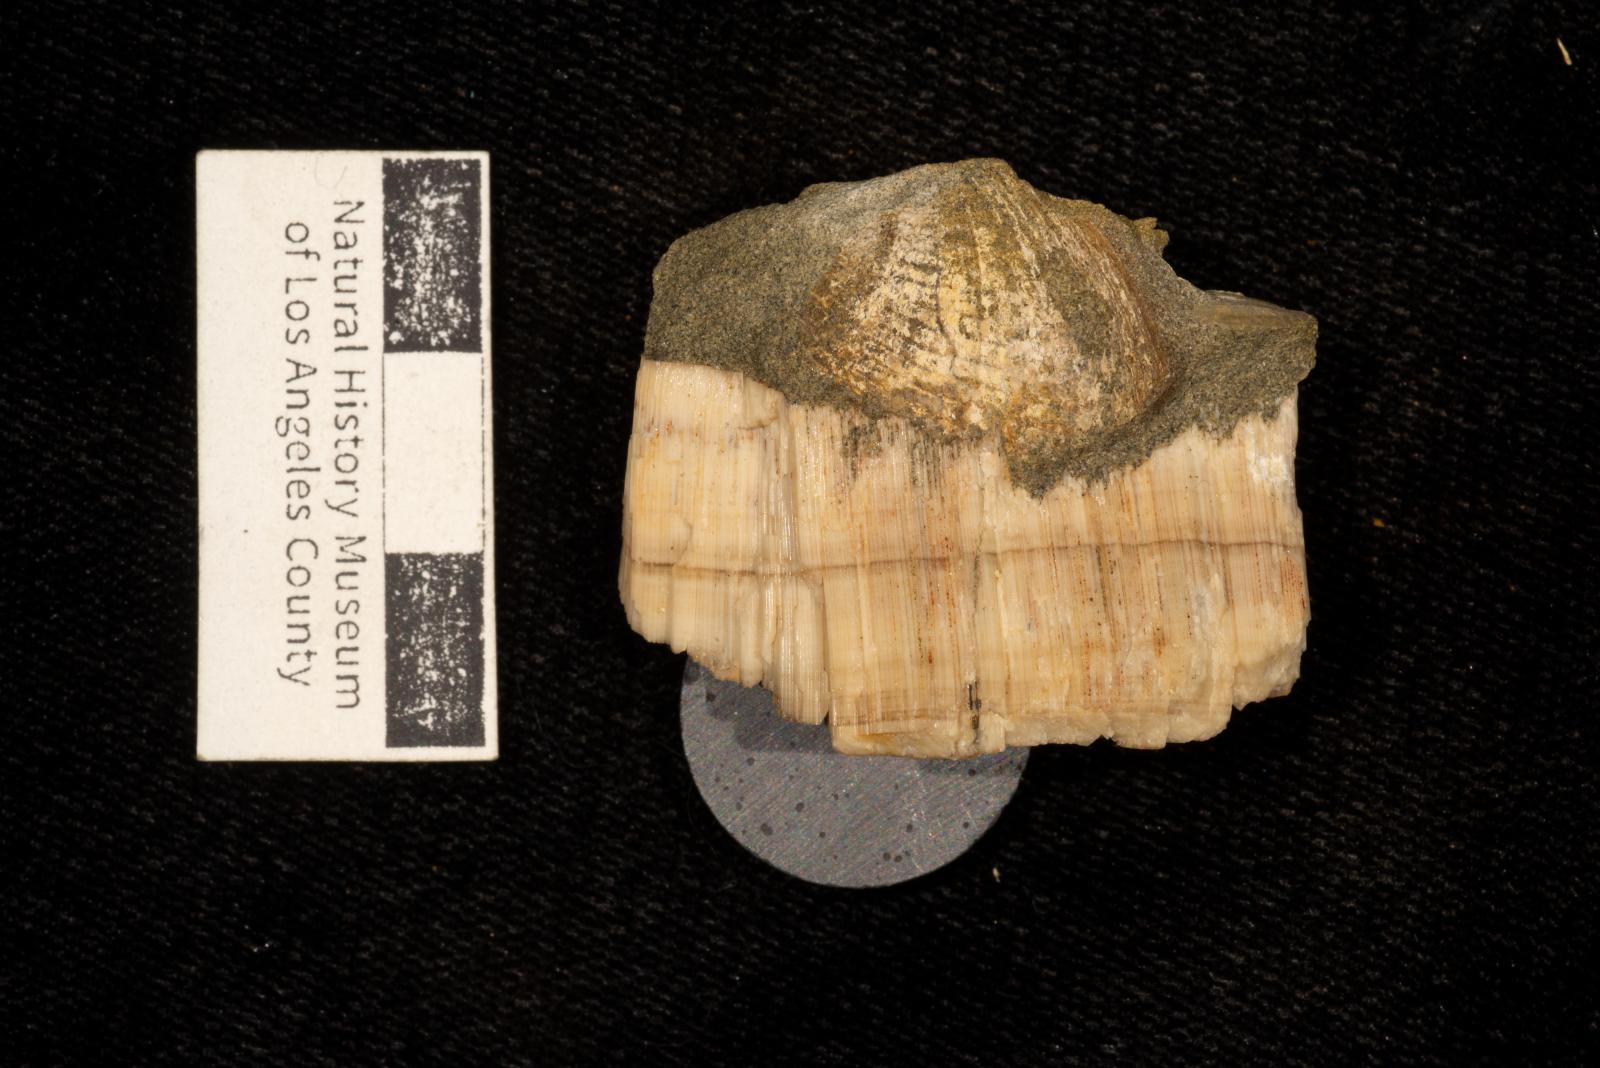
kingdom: Animalia
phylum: Mollusca
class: Bivalvia
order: Myalinida
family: Inoceramidae
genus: Inoceramus
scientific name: Inoceramus
